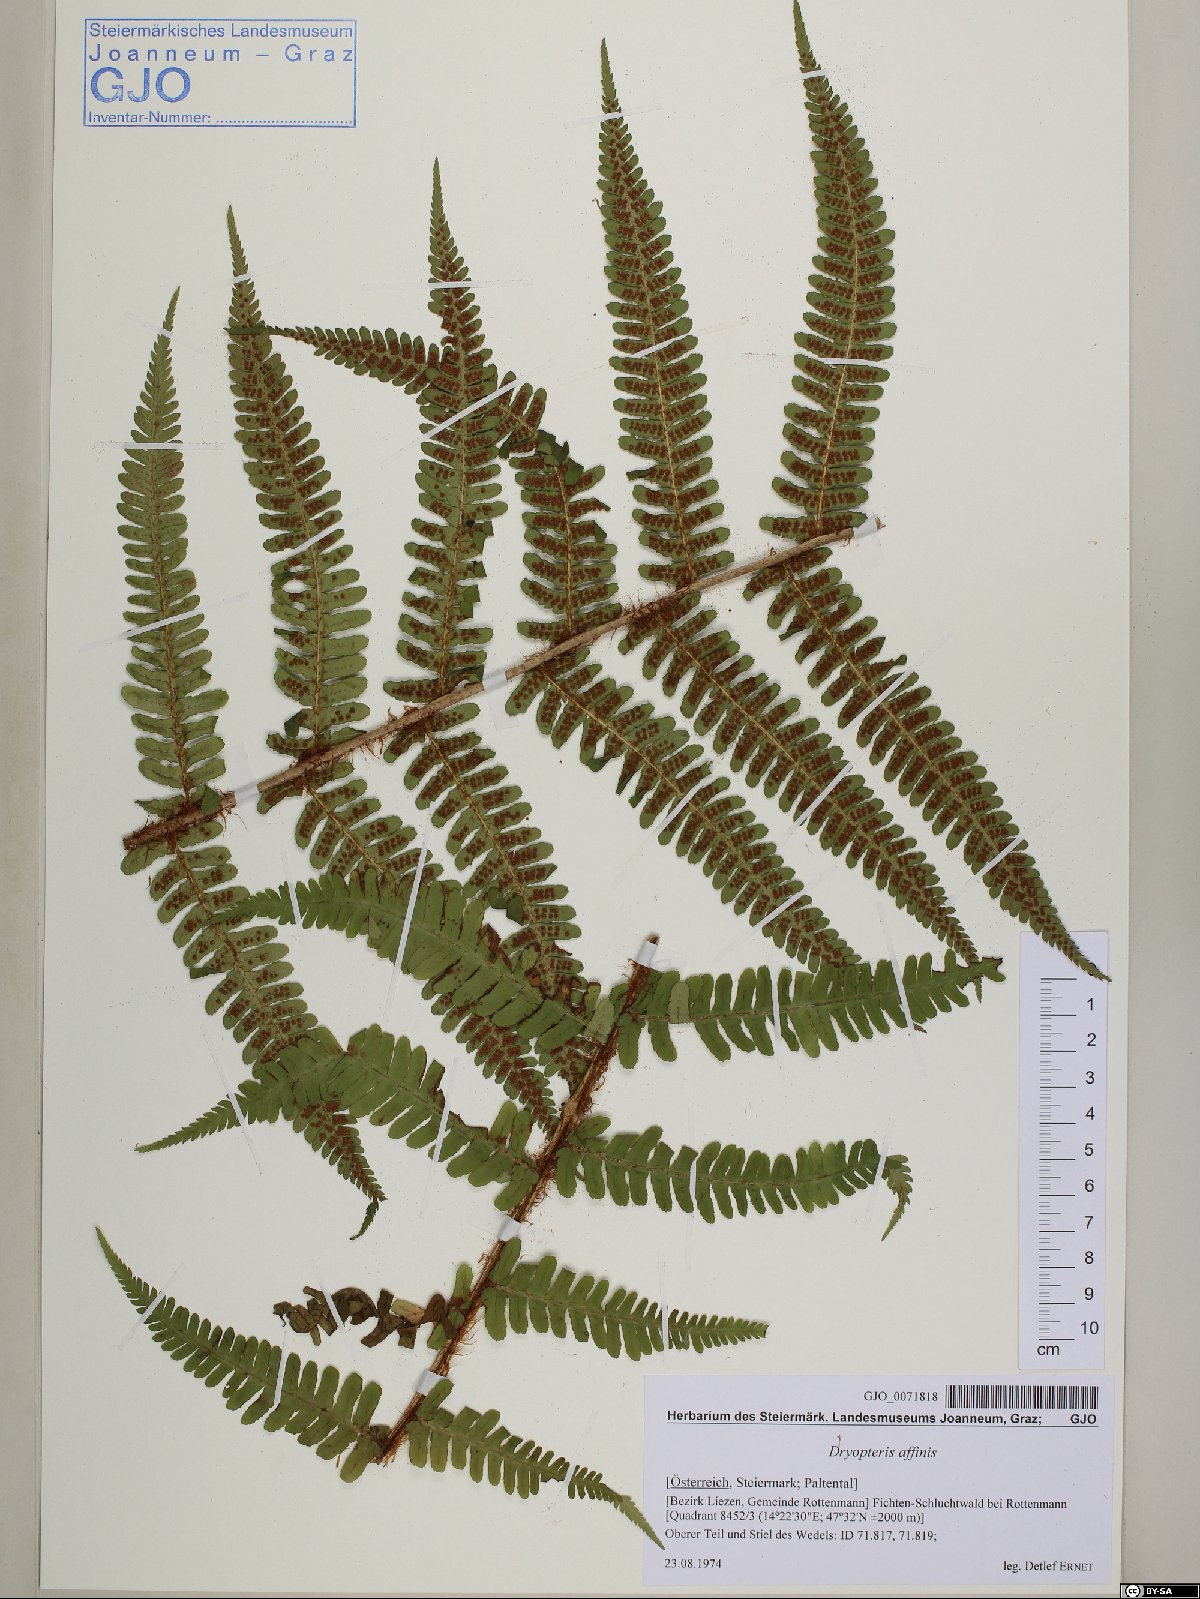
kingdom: Plantae
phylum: Tracheophyta
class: Polypodiopsida
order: Polypodiales
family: Dryopteridaceae
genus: Dryopteris
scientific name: Dryopteris affinis
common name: Scaly male fern
